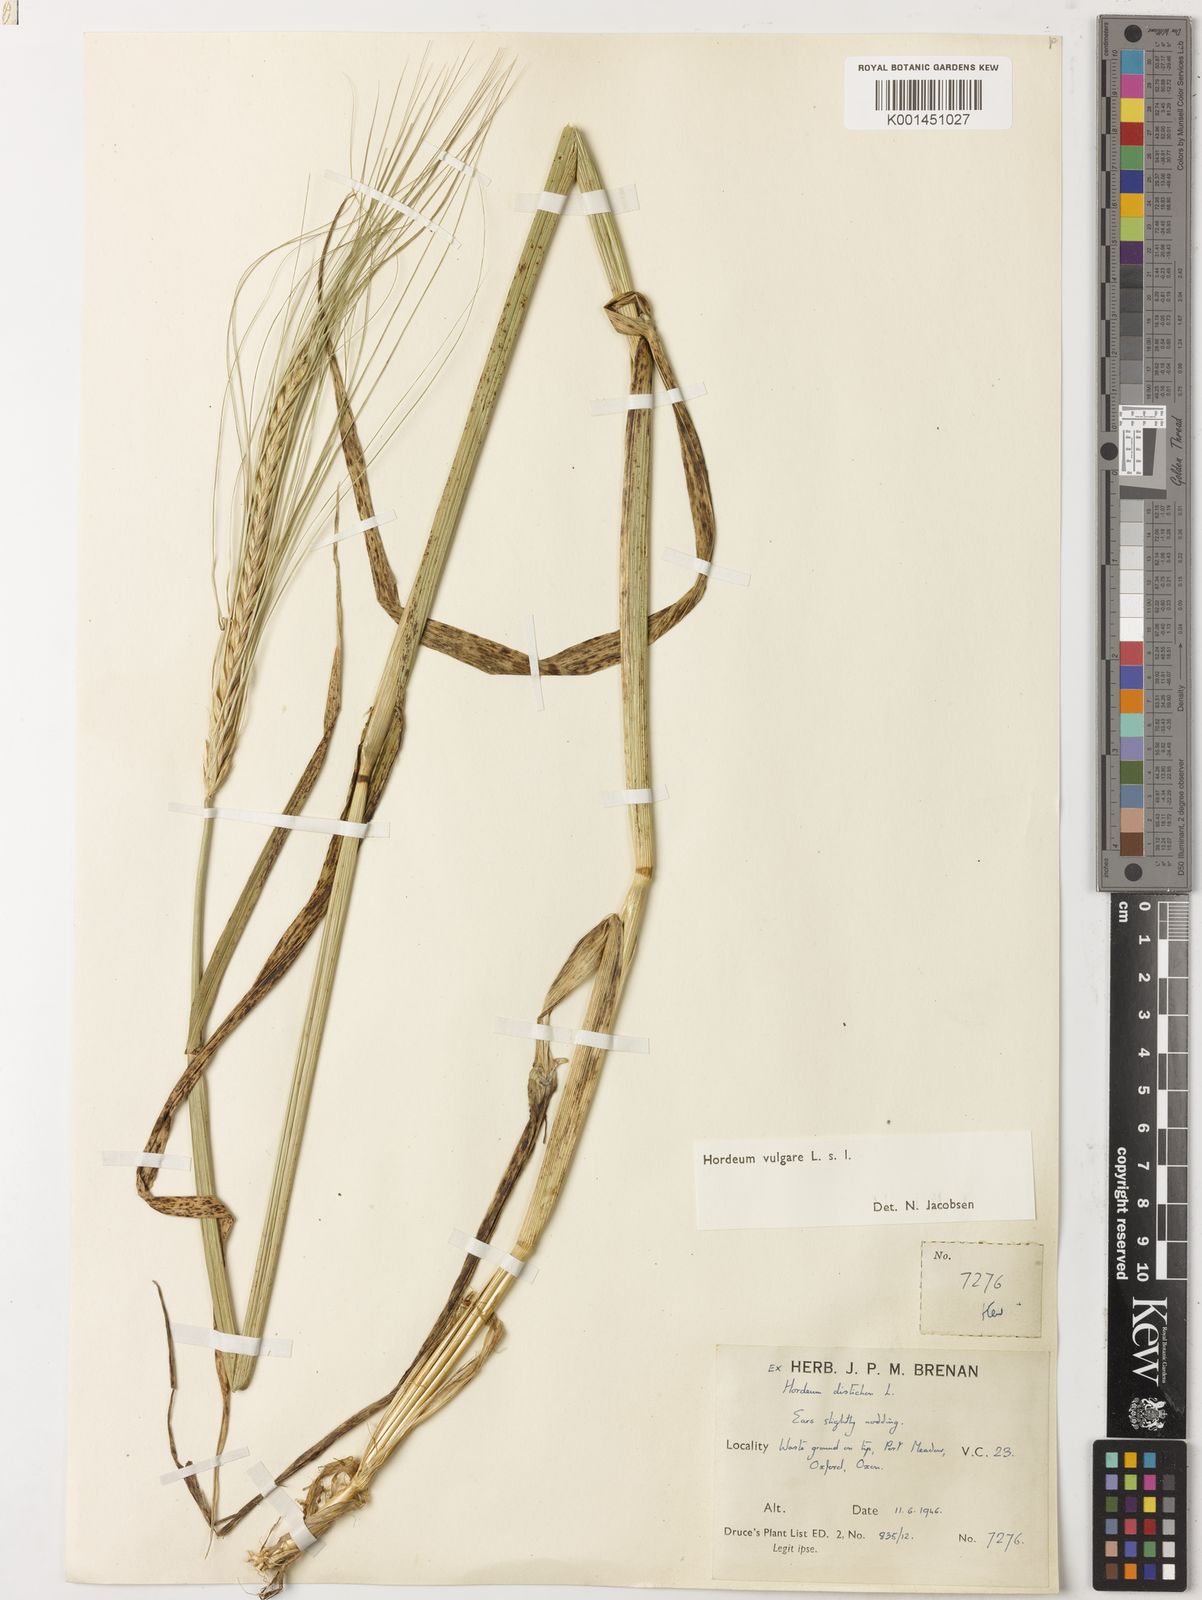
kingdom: Plantae
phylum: Tracheophyta
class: Liliopsida
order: Poales
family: Poaceae
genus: Hordeum
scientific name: Hordeum vulgare
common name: Common barley
